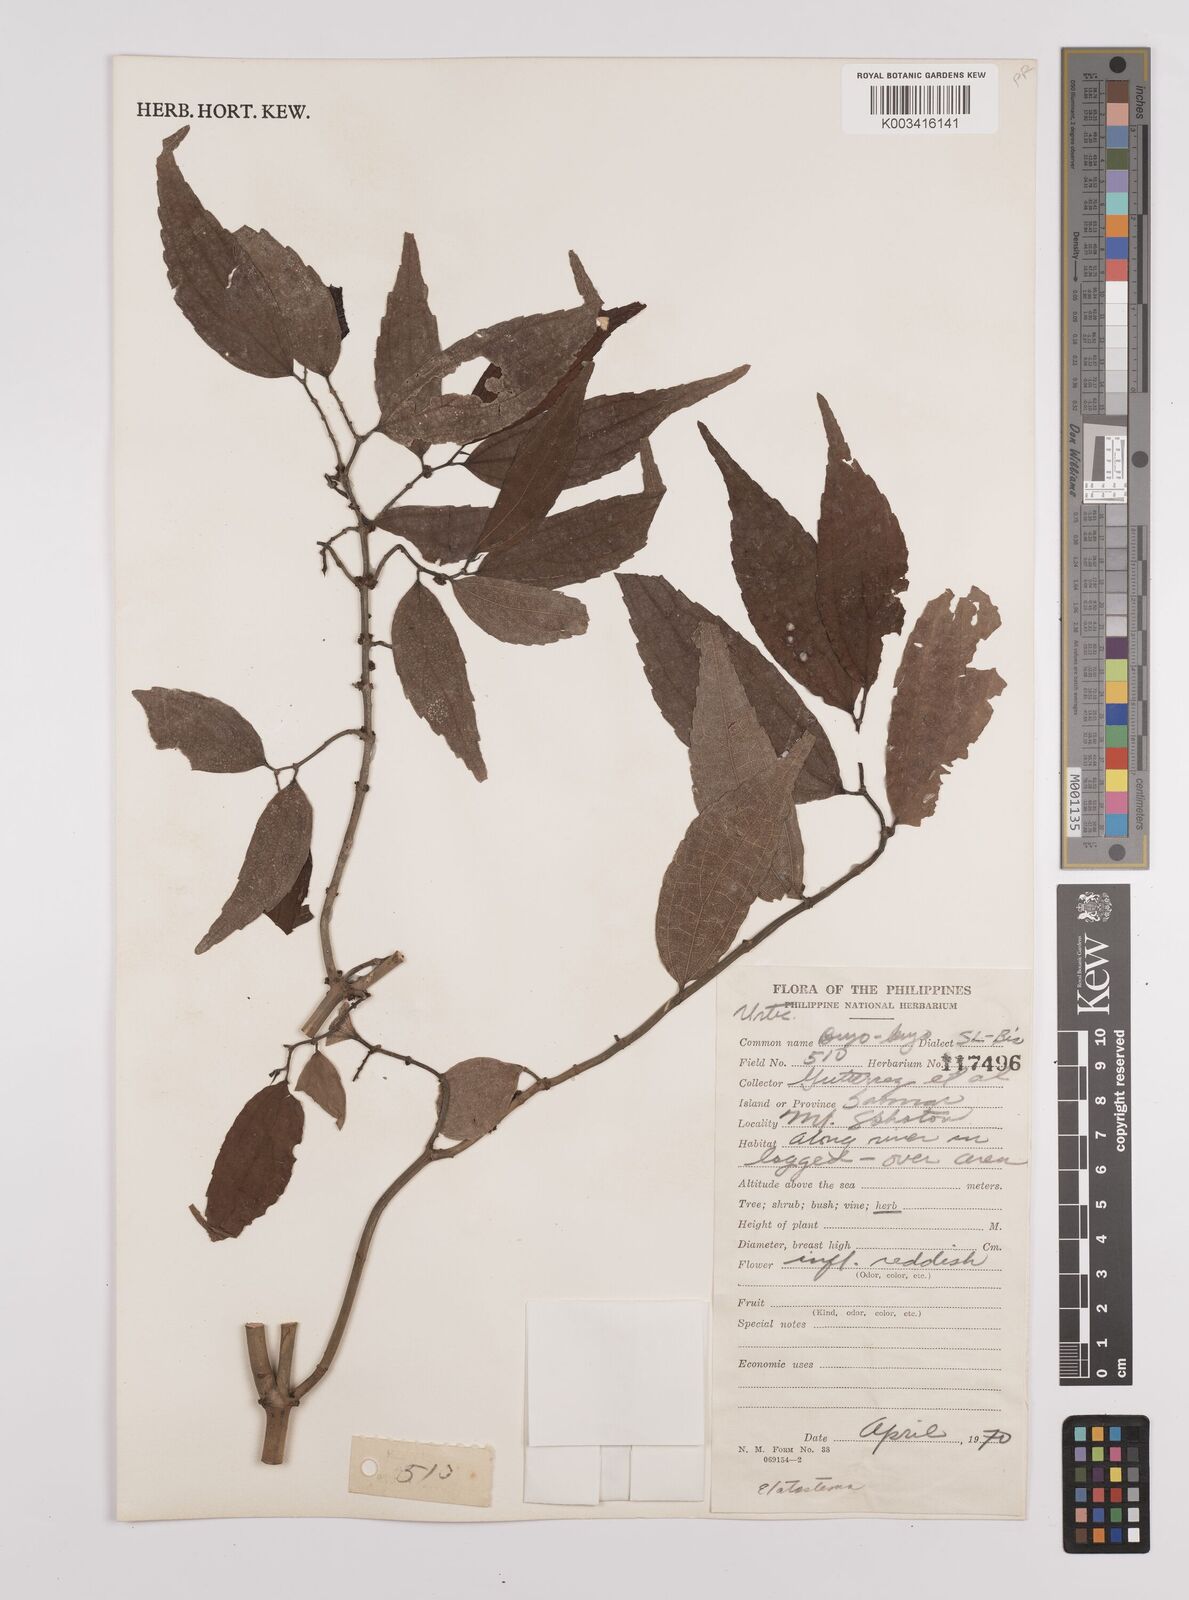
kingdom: Plantae
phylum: Tracheophyta
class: Magnoliopsida
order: Rosales
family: Urticaceae
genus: Elatostema
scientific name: Elatostema
